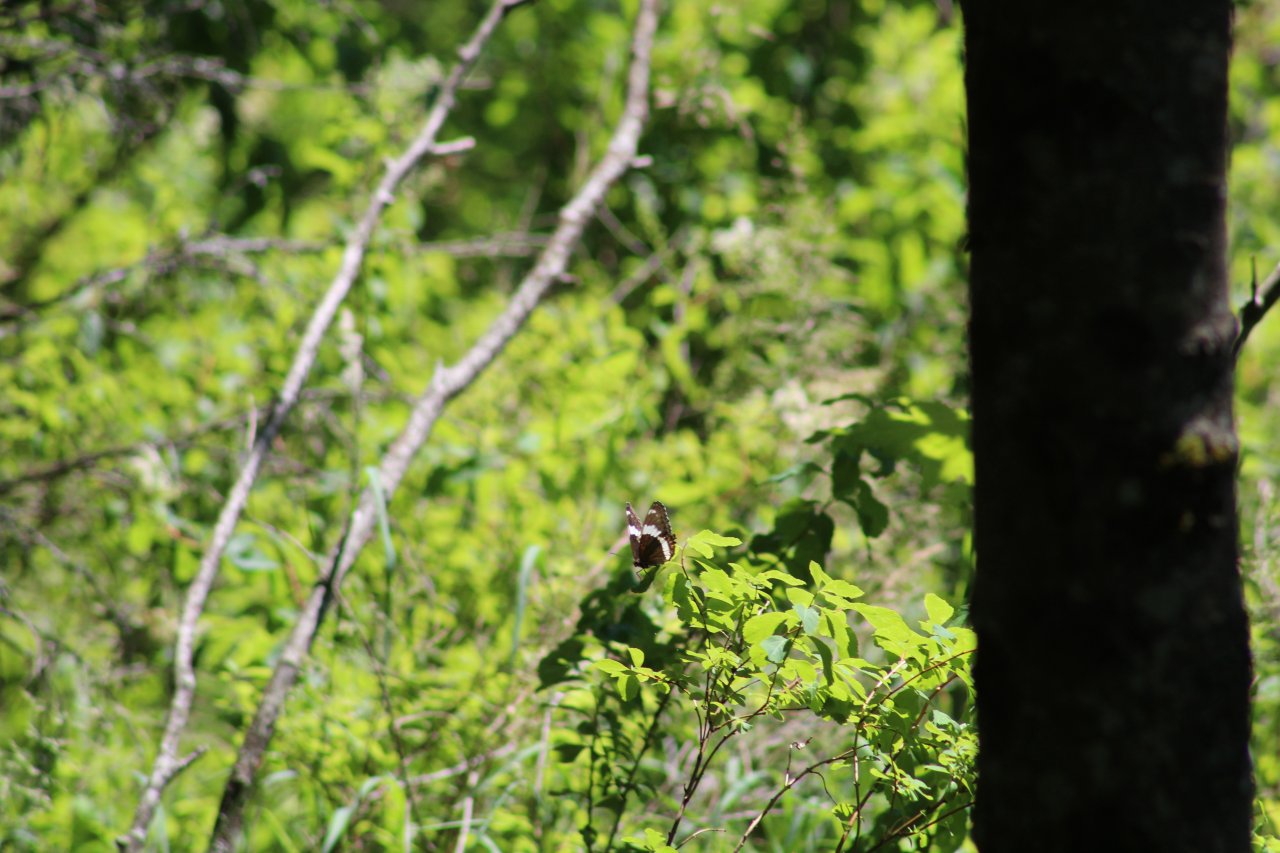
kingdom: Animalia
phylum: Arthropoda
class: Insecta
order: Lepidoptera
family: Nymphalidae
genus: Limenitis
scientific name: Limenitis arthemis
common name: Red-spotted Admiral
